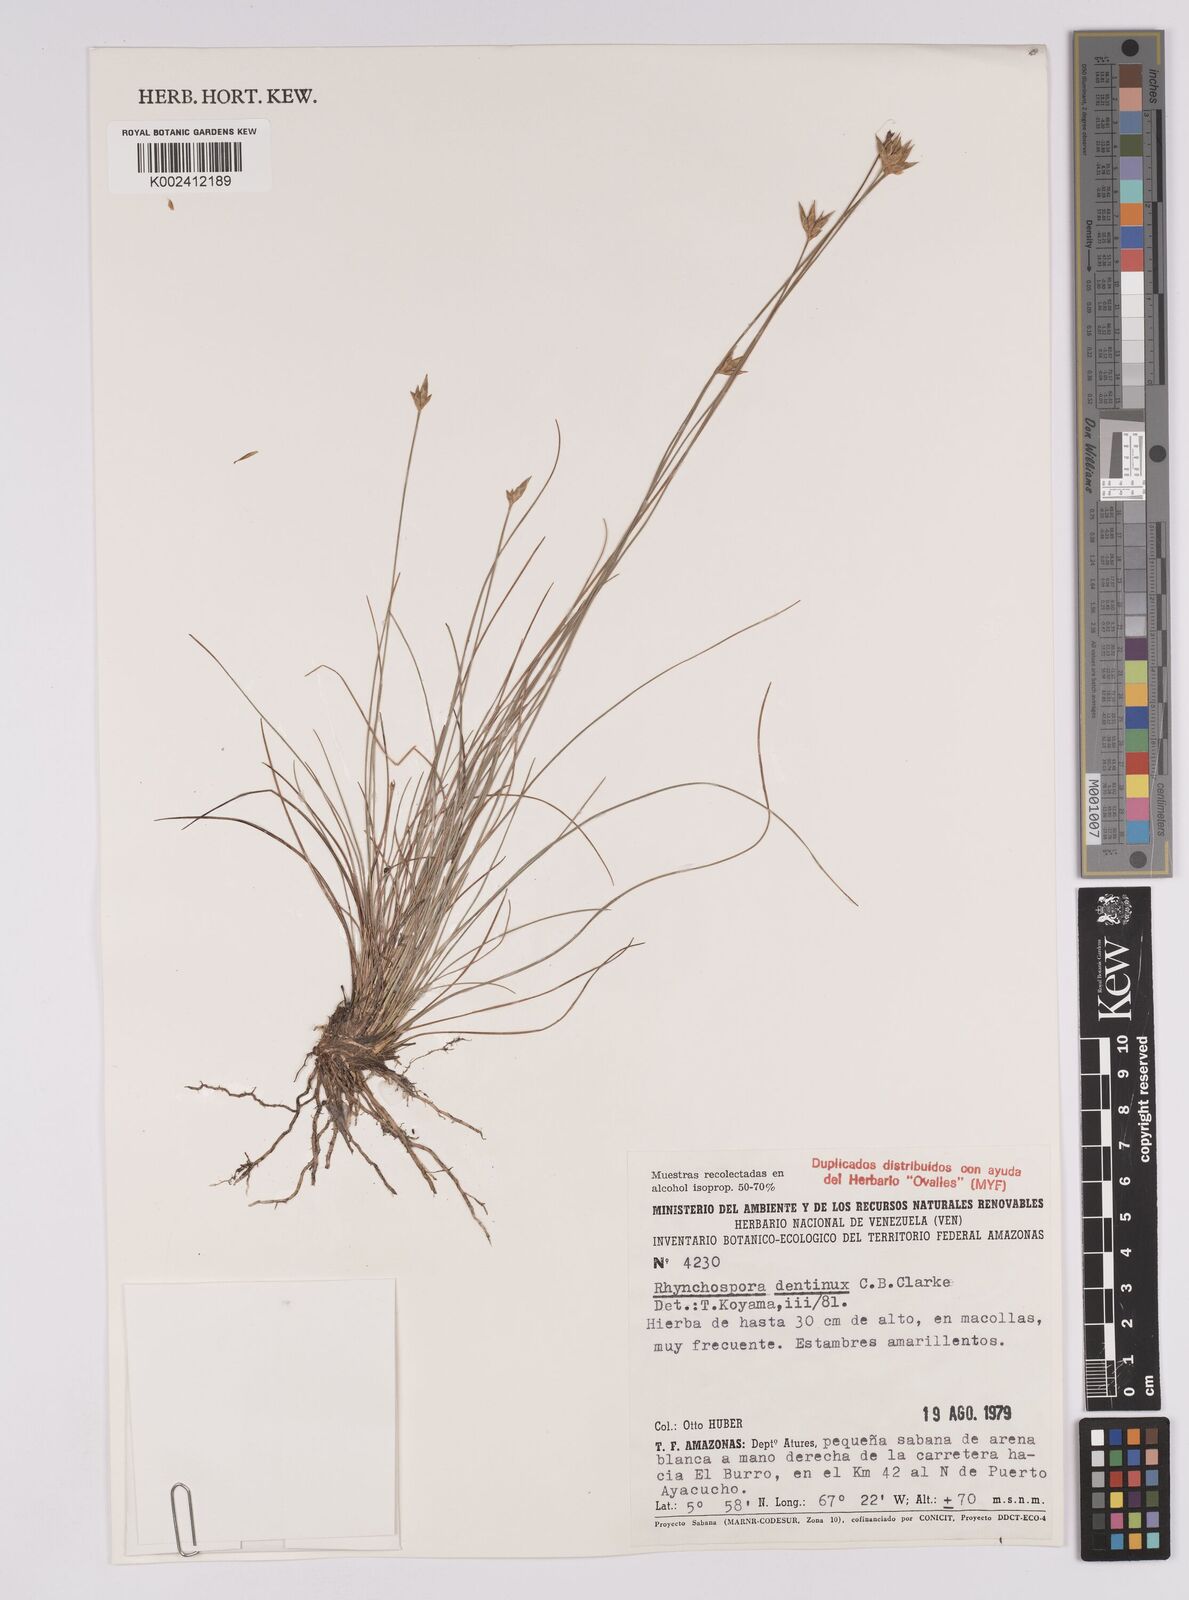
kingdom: Plantae
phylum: Tracheophyta
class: Liliopsida
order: Poales
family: Cyperaceae
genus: Rhynchospora
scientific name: Rhynchospora dentinux
